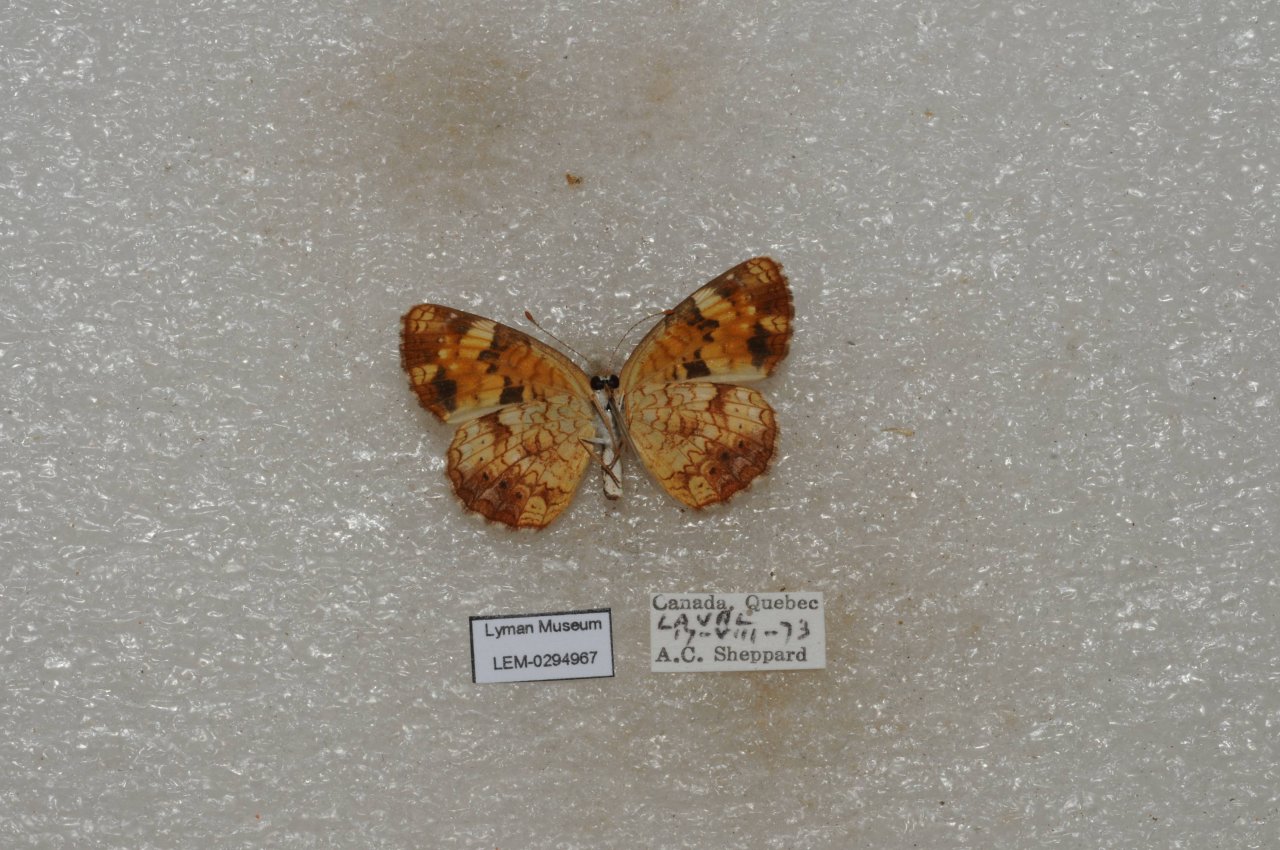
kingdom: Animalia
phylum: Arthropoda
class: Insecta
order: Lepidoptera
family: Nymphalidae
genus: Phyciodes
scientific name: Phyciodes tharos
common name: Northern Crescent
